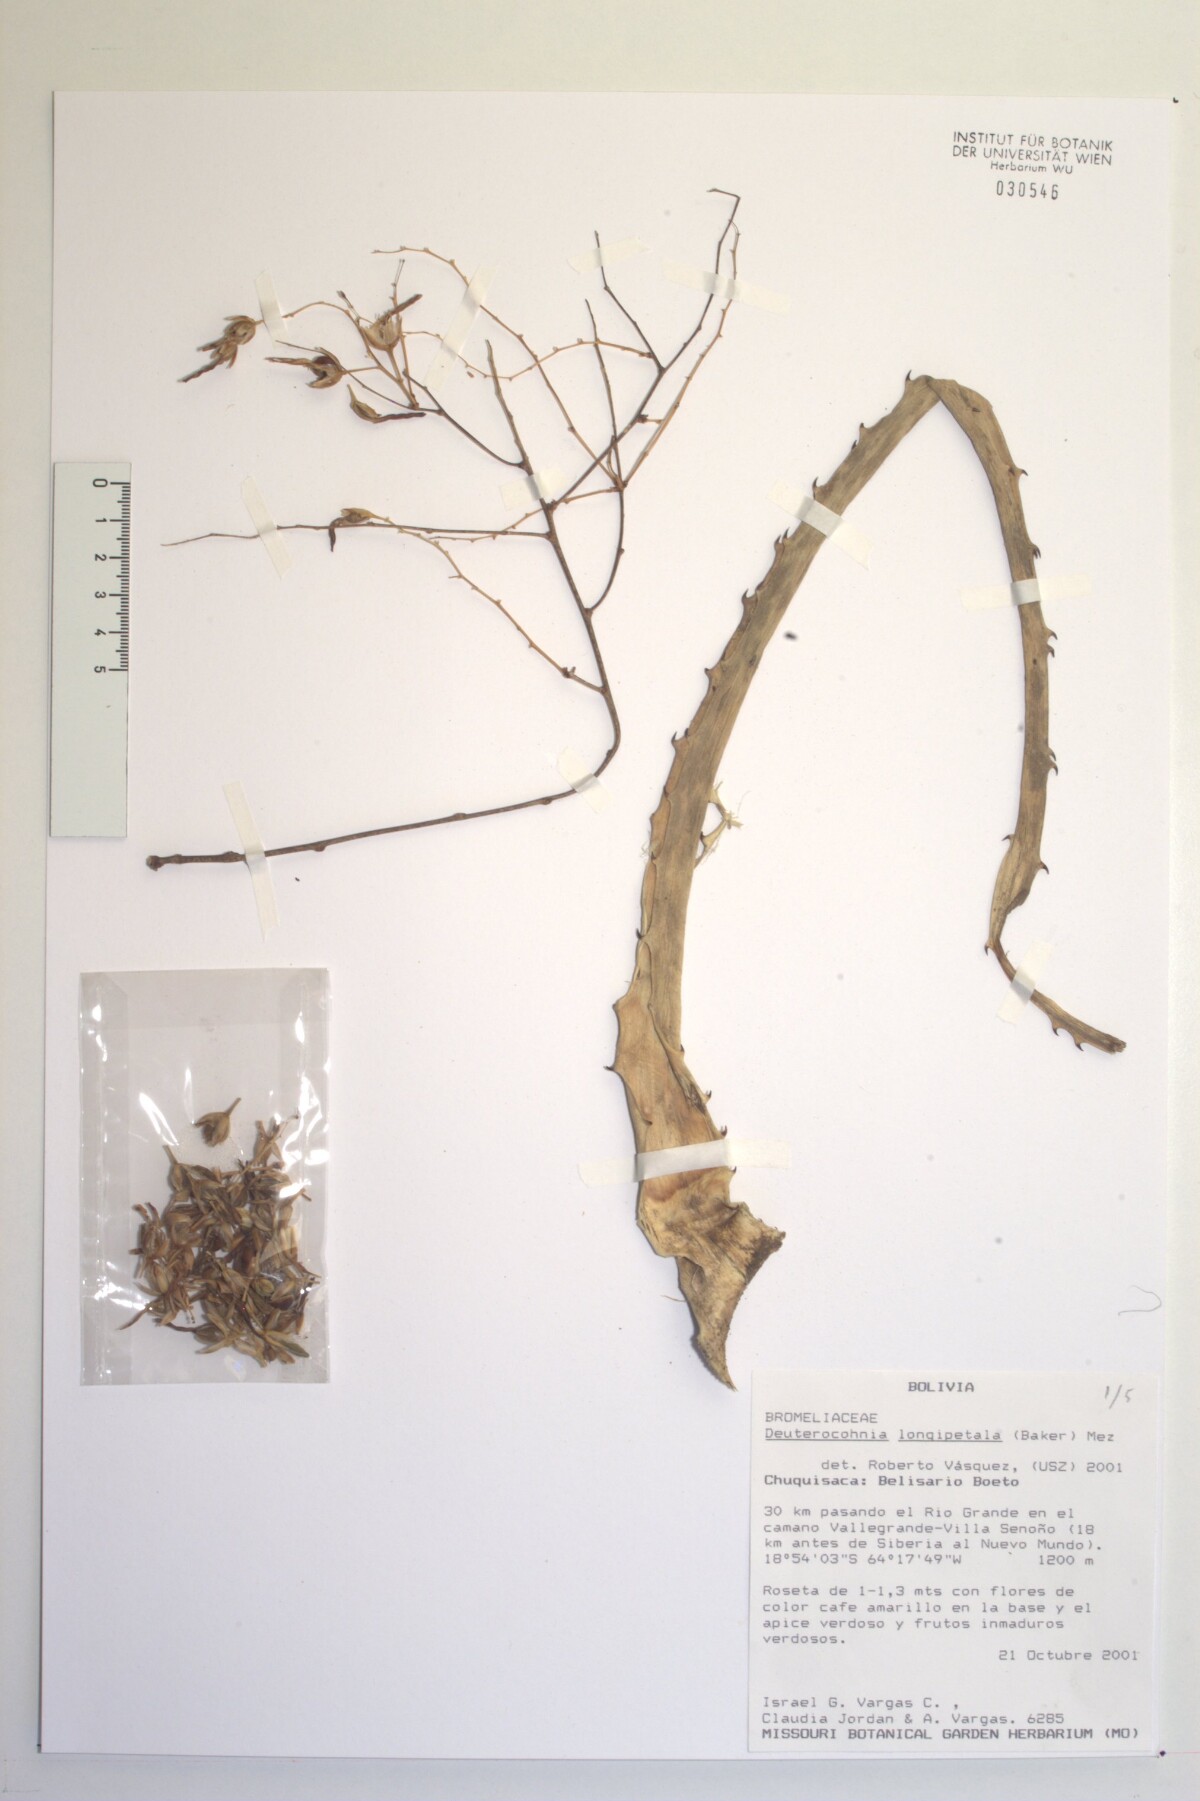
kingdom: Plantae
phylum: Tracheophyta
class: Liliopsida
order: Poales
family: Bromeliaceae
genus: Deuterocohnia
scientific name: Deuterocohnia meziana
